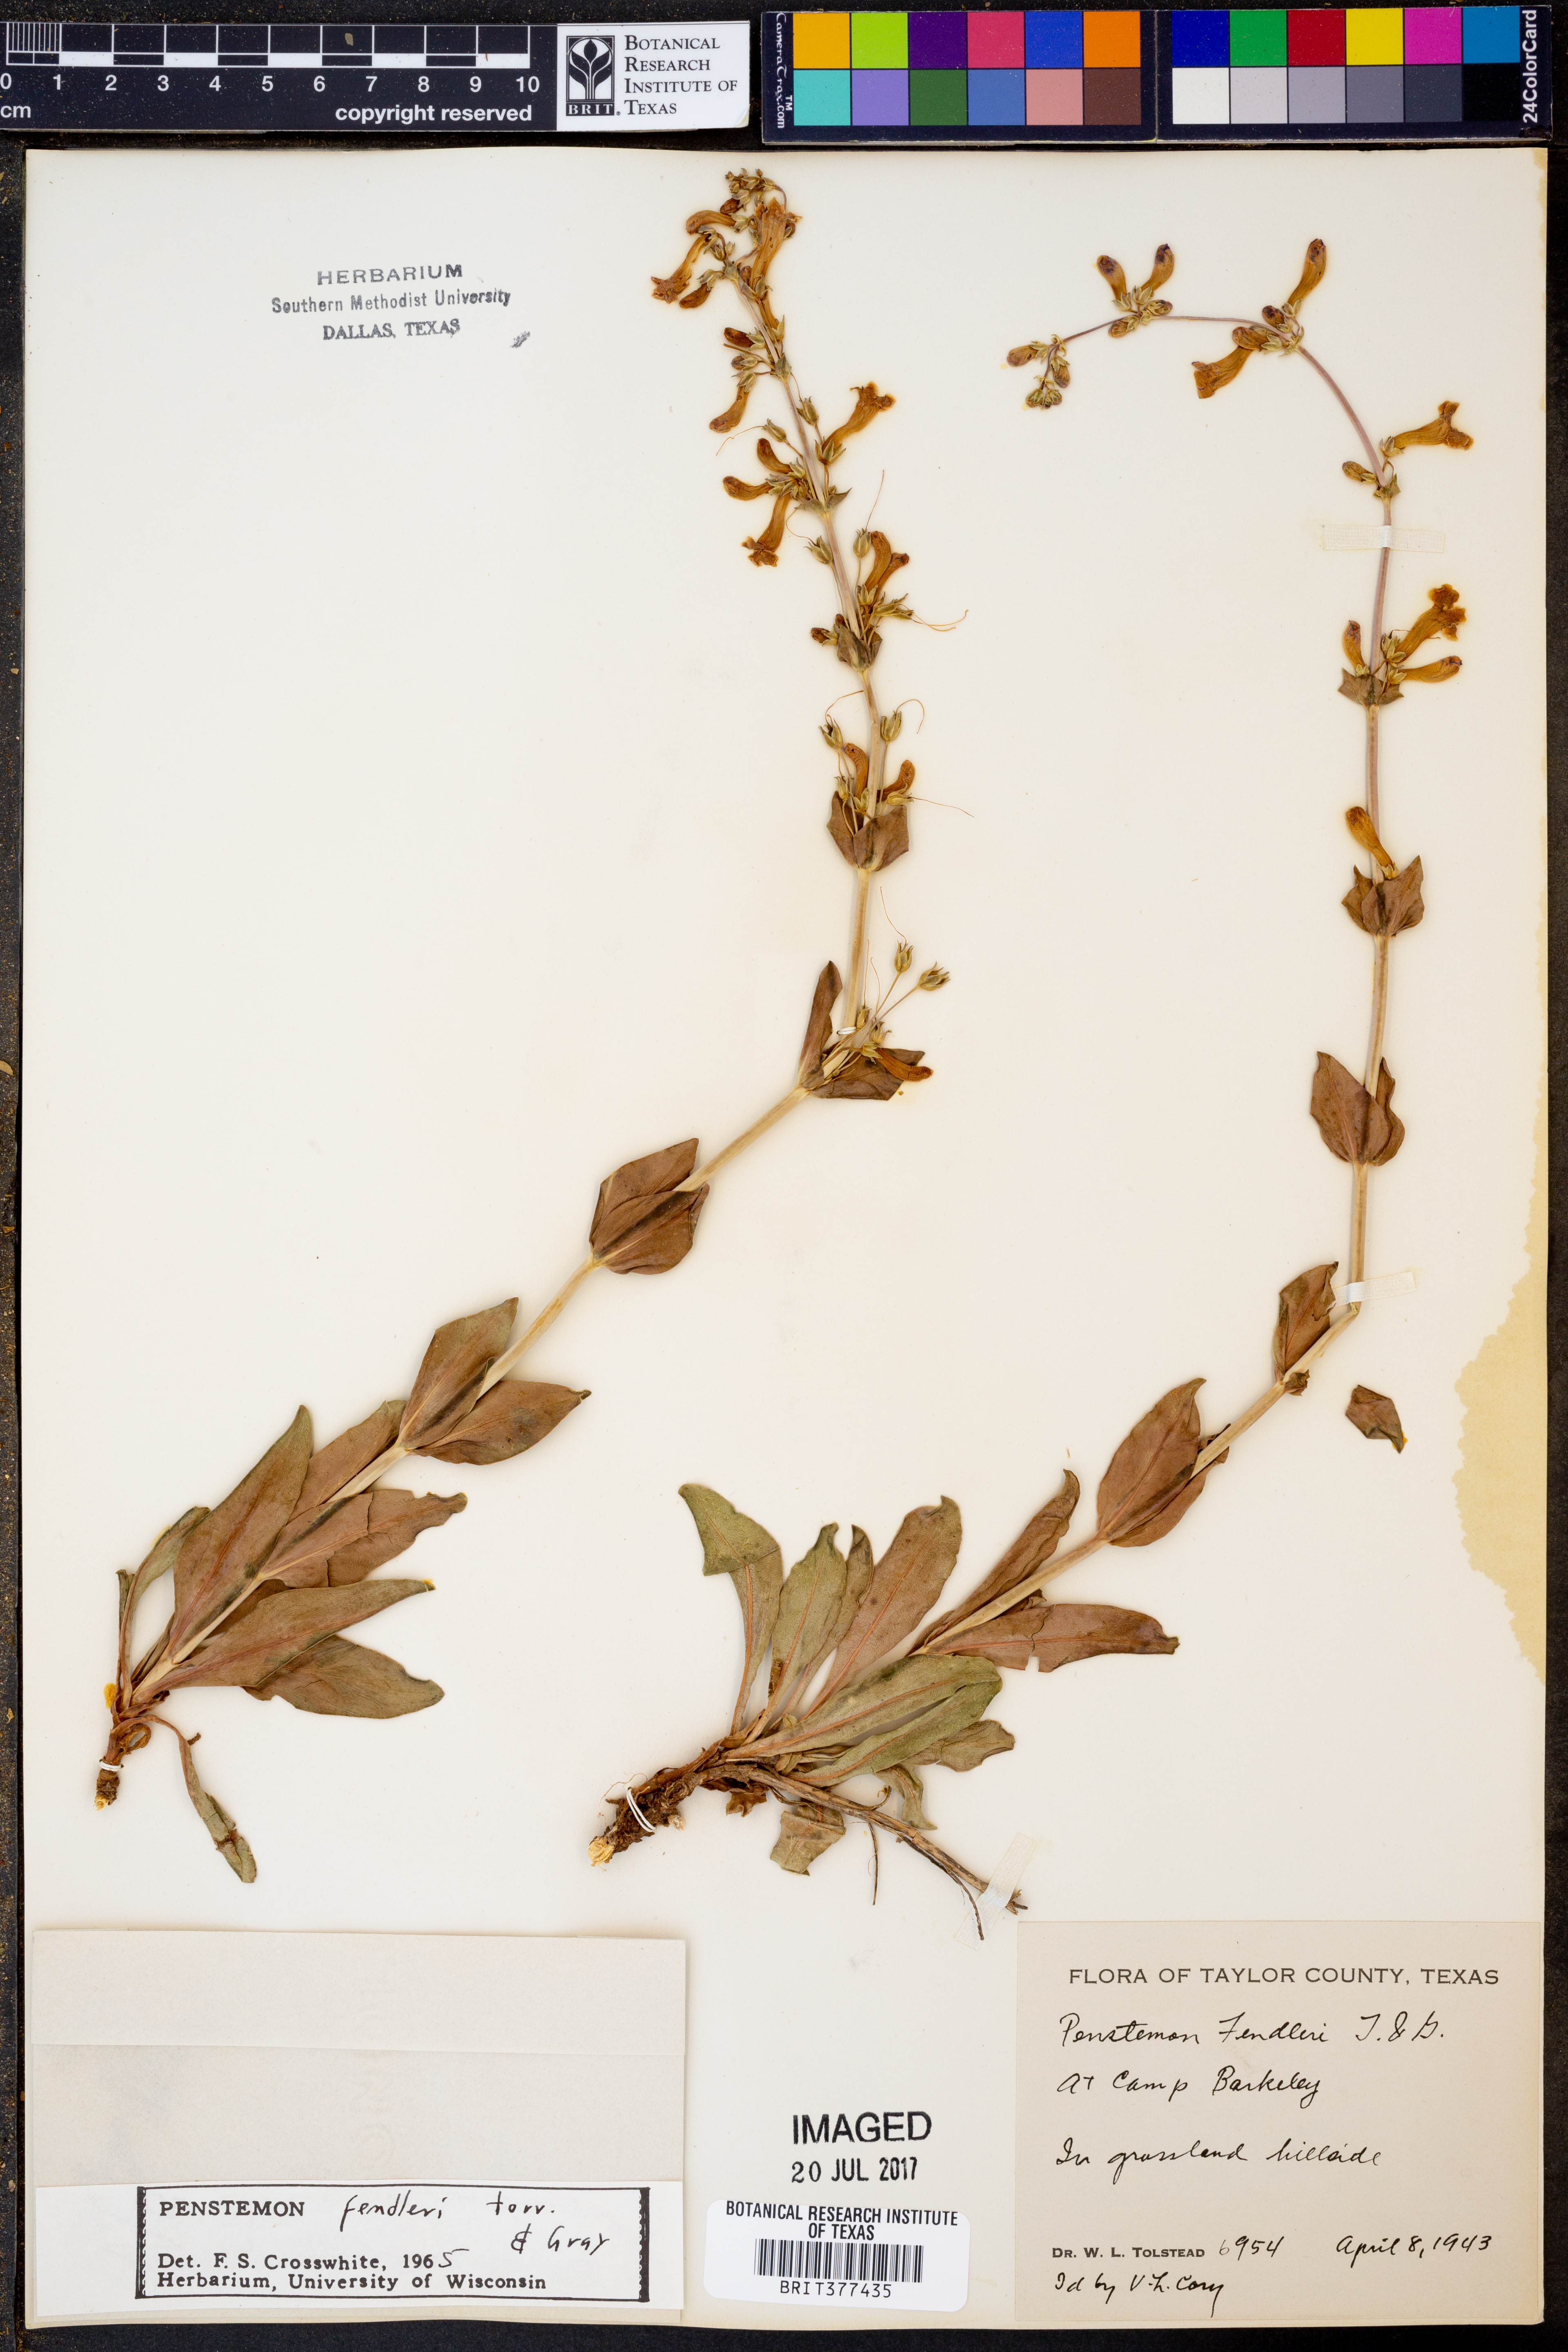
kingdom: Plantae
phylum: Tracheophyta
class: Magnoliopsida
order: Lamiales
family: Plantaginaceae
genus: Penstemon
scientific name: Penstemon fendleri
